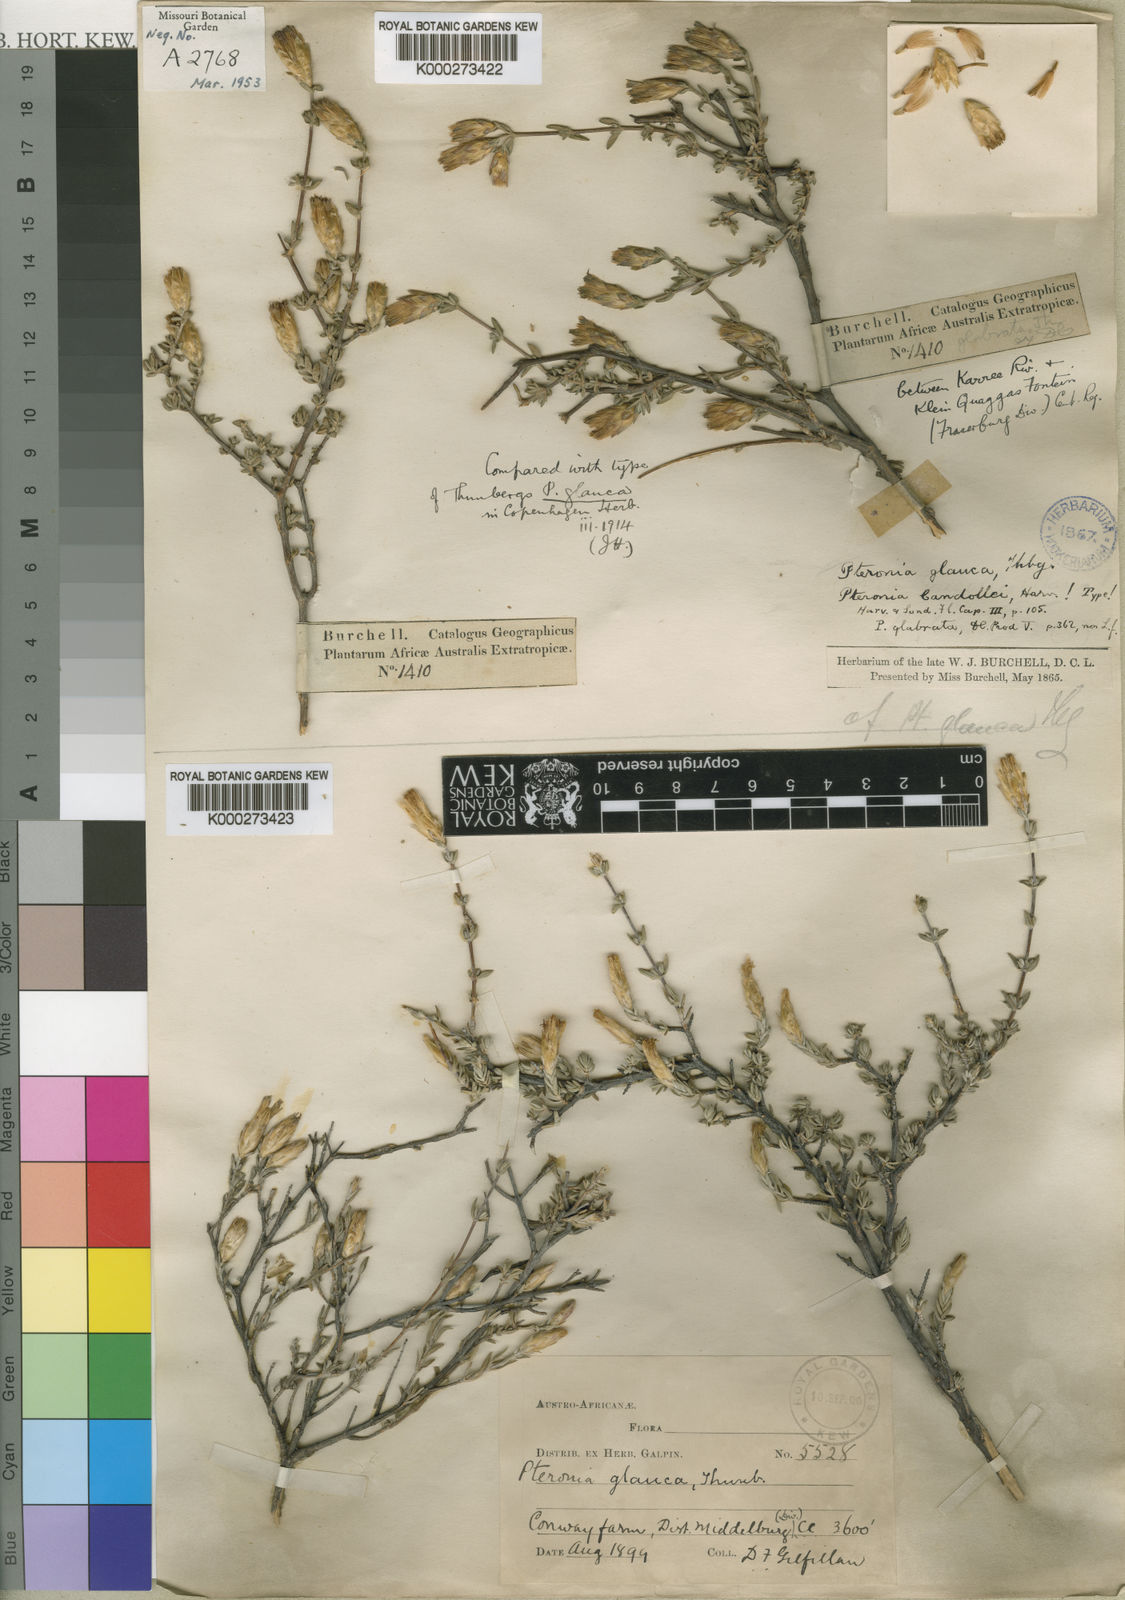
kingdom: Plantae
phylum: Tracheophyta
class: Magnoliopsida
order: Asterales
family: Asteraceae
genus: Pteronia
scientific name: Pteronia glauca
